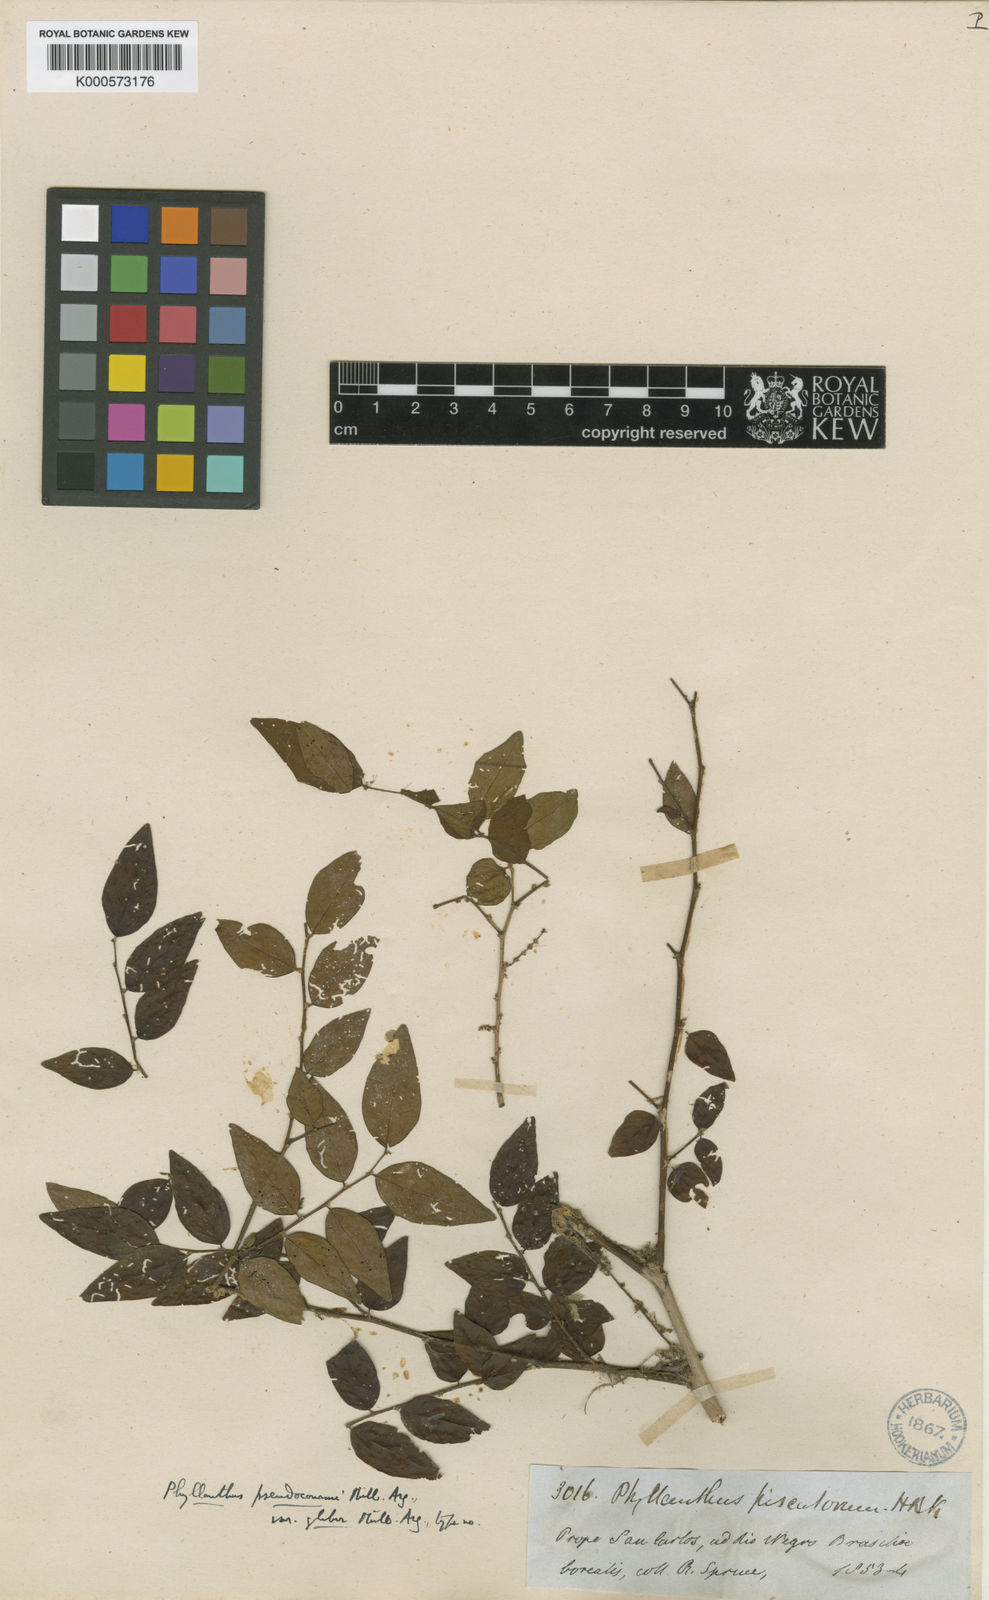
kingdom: Plantae
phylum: Tracheophyta
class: Magnoliopsida
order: Malpighiales
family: Phyllanthaceae
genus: Phyllanthus
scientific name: Phyllanthus
